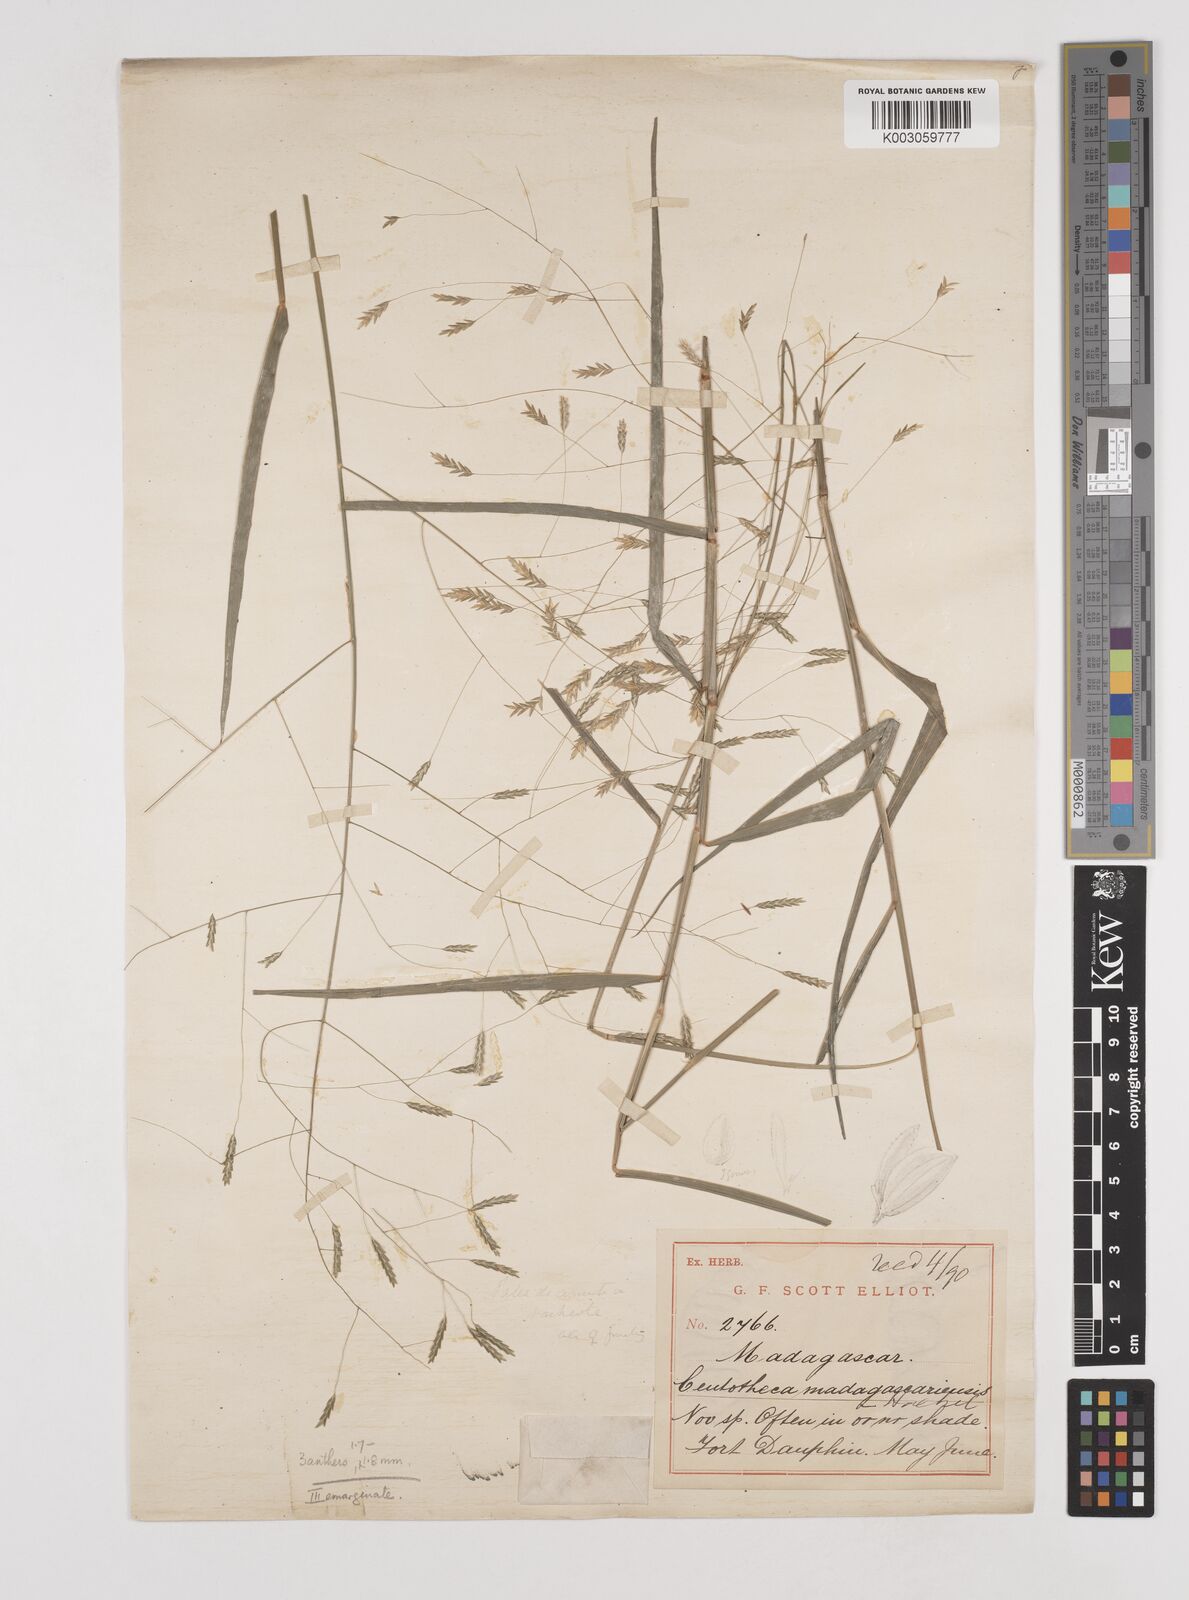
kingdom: Plantae
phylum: Tracheophyta
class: Liliopsida
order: Poales
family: Poaceae
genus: Megastachya
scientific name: Megastachya madagascariensis
